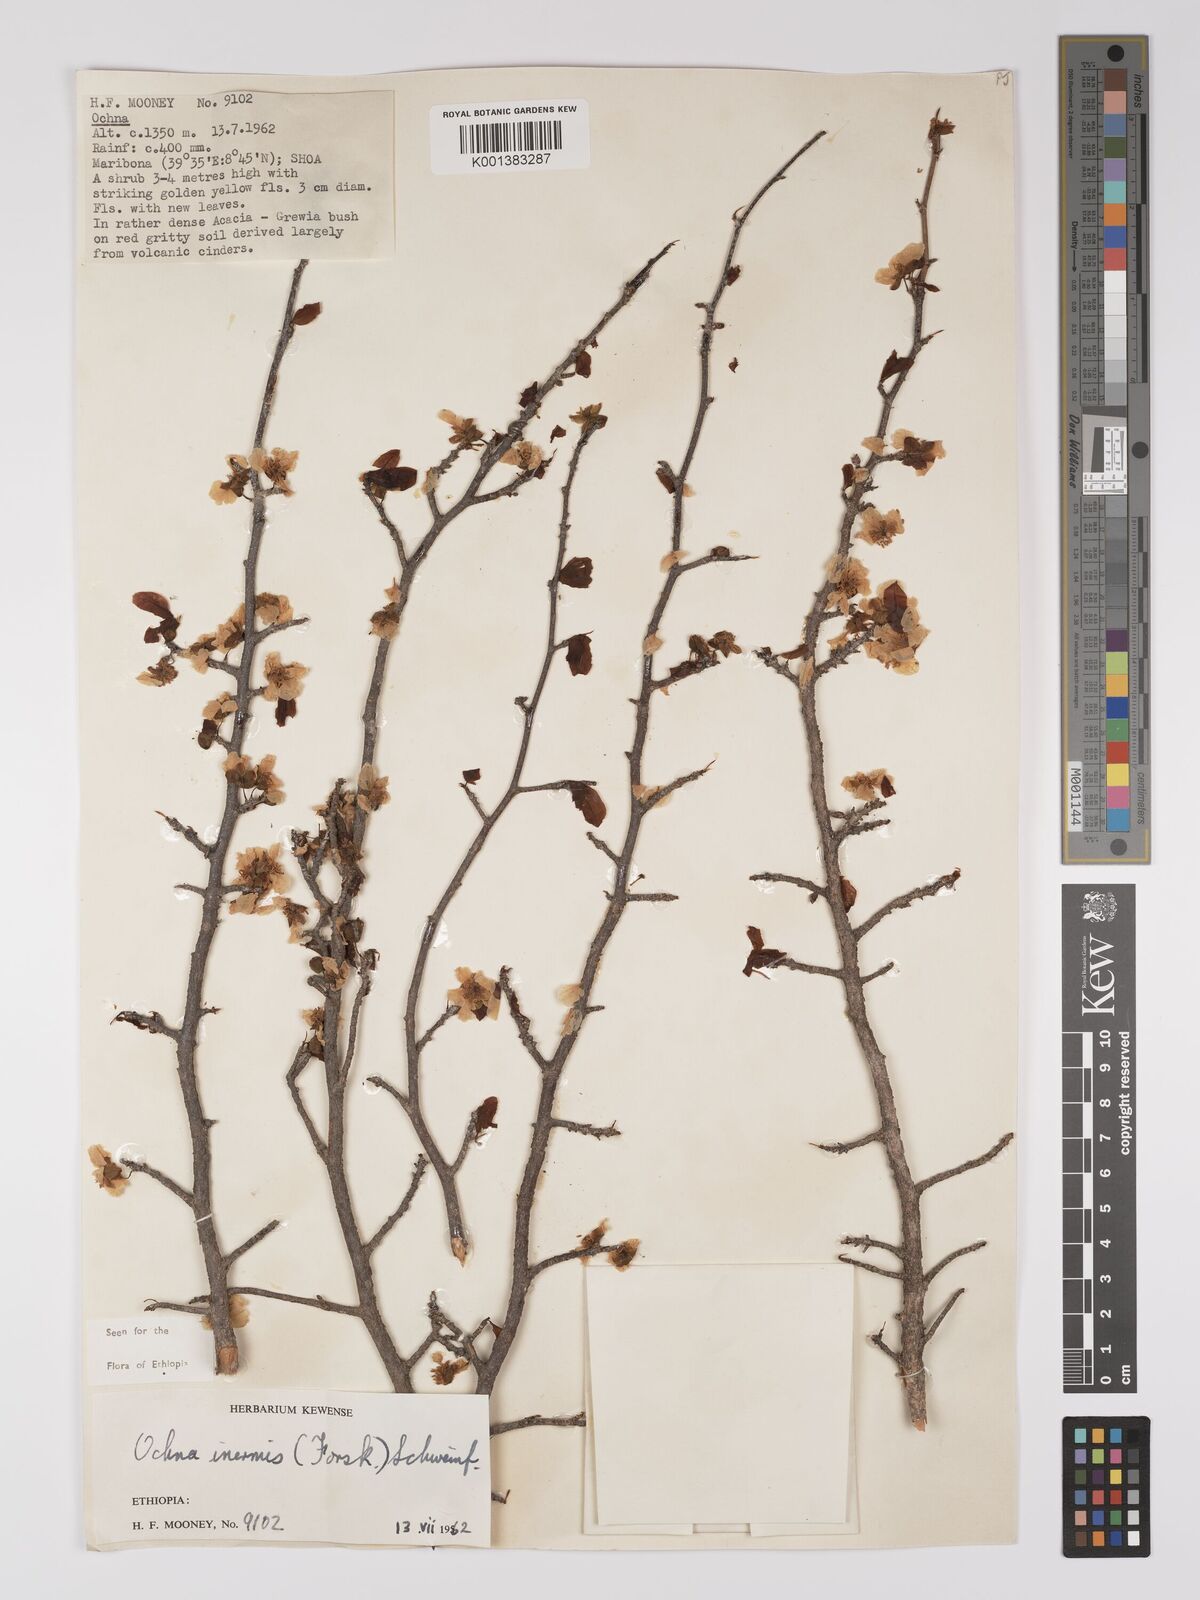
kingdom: Plantae
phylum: Tracheophyta
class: Magnoliopsida
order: Malpighiales
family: Ochnaceae
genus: Ochna
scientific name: Ochna inermis
